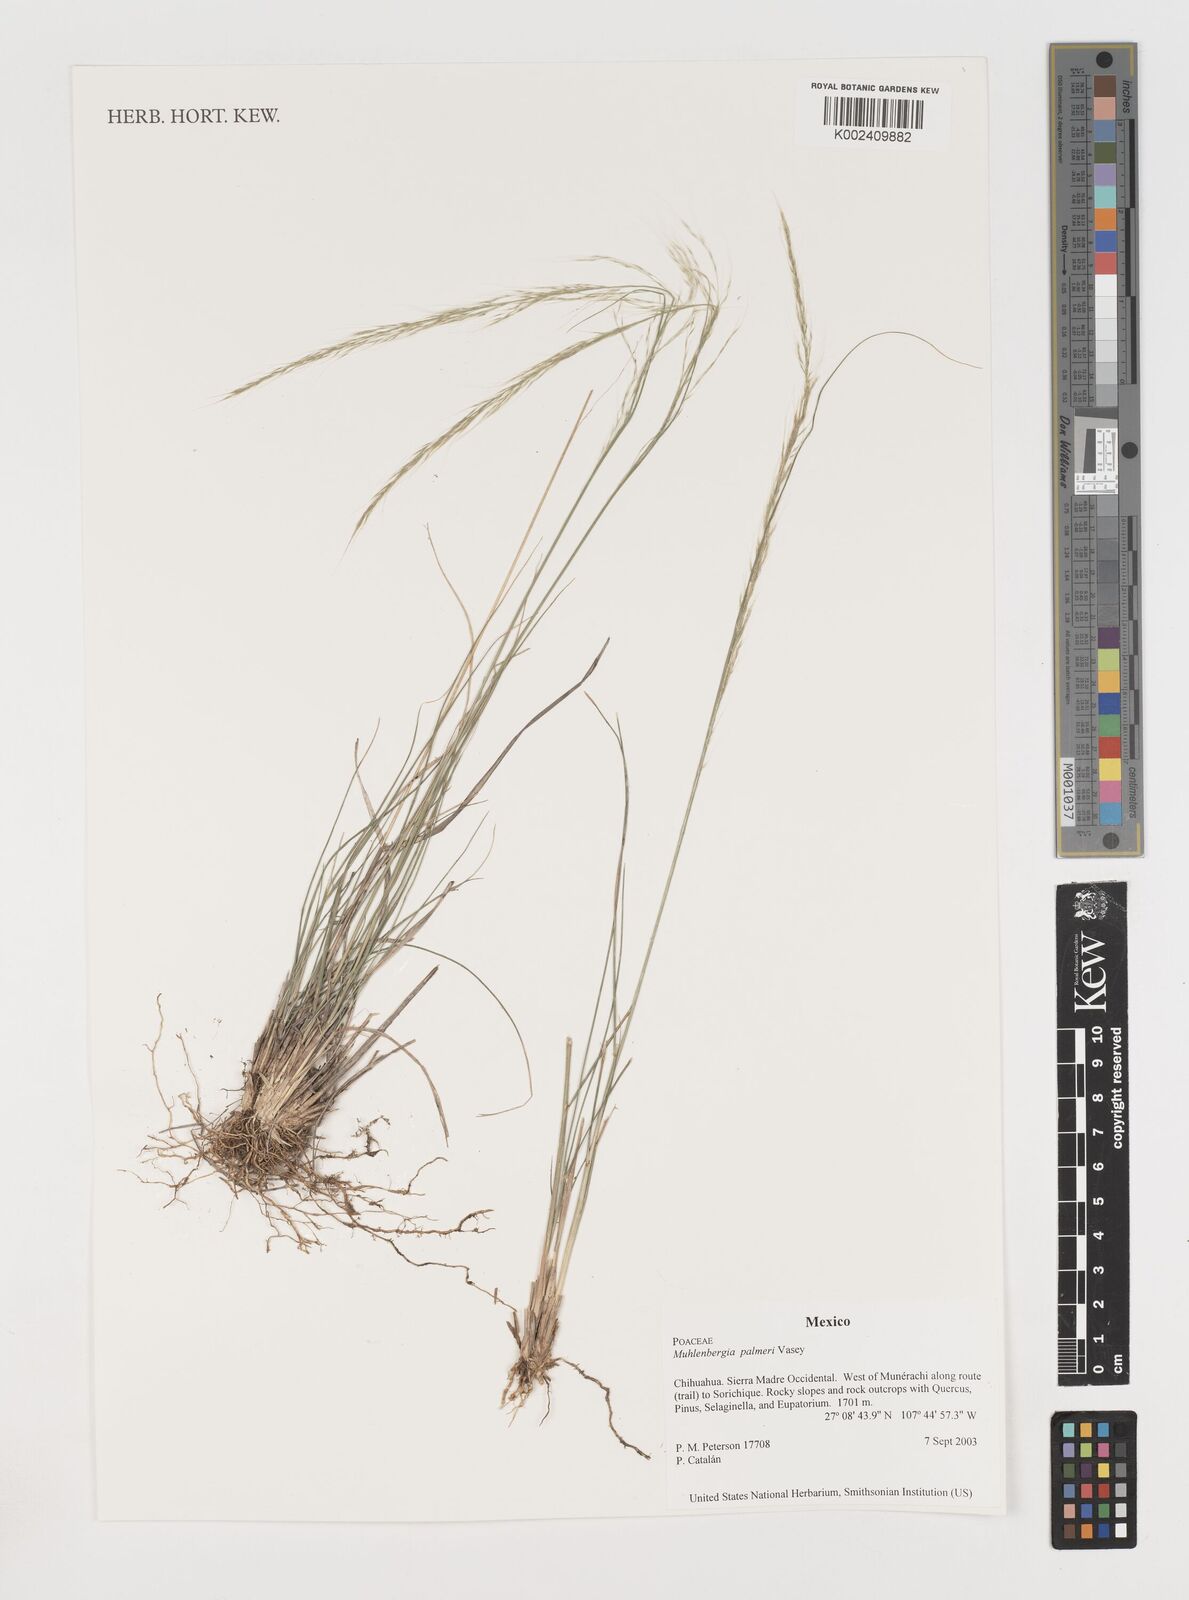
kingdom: Plantae
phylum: Tracheophyta
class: Liliopsida
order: Poales
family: Poaceae
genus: Muhlenbergia
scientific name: Muhlenbergia palmeri
